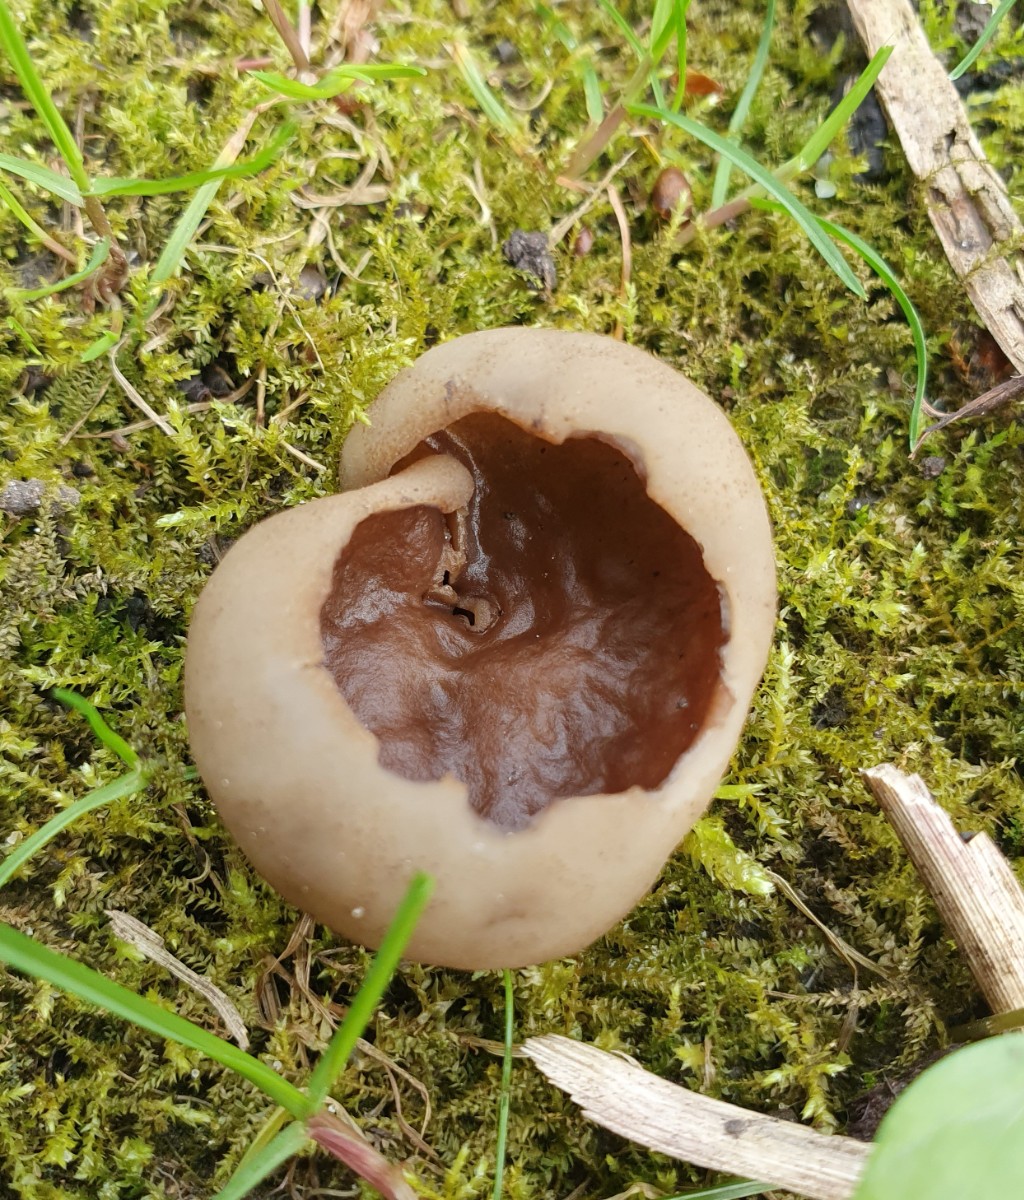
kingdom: Fungi
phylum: Ascomycota
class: Pezizomycetes
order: Pezizales
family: Morchellaceae
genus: Disciotis
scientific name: Disciotis venosa
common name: klor-bægermorkel
